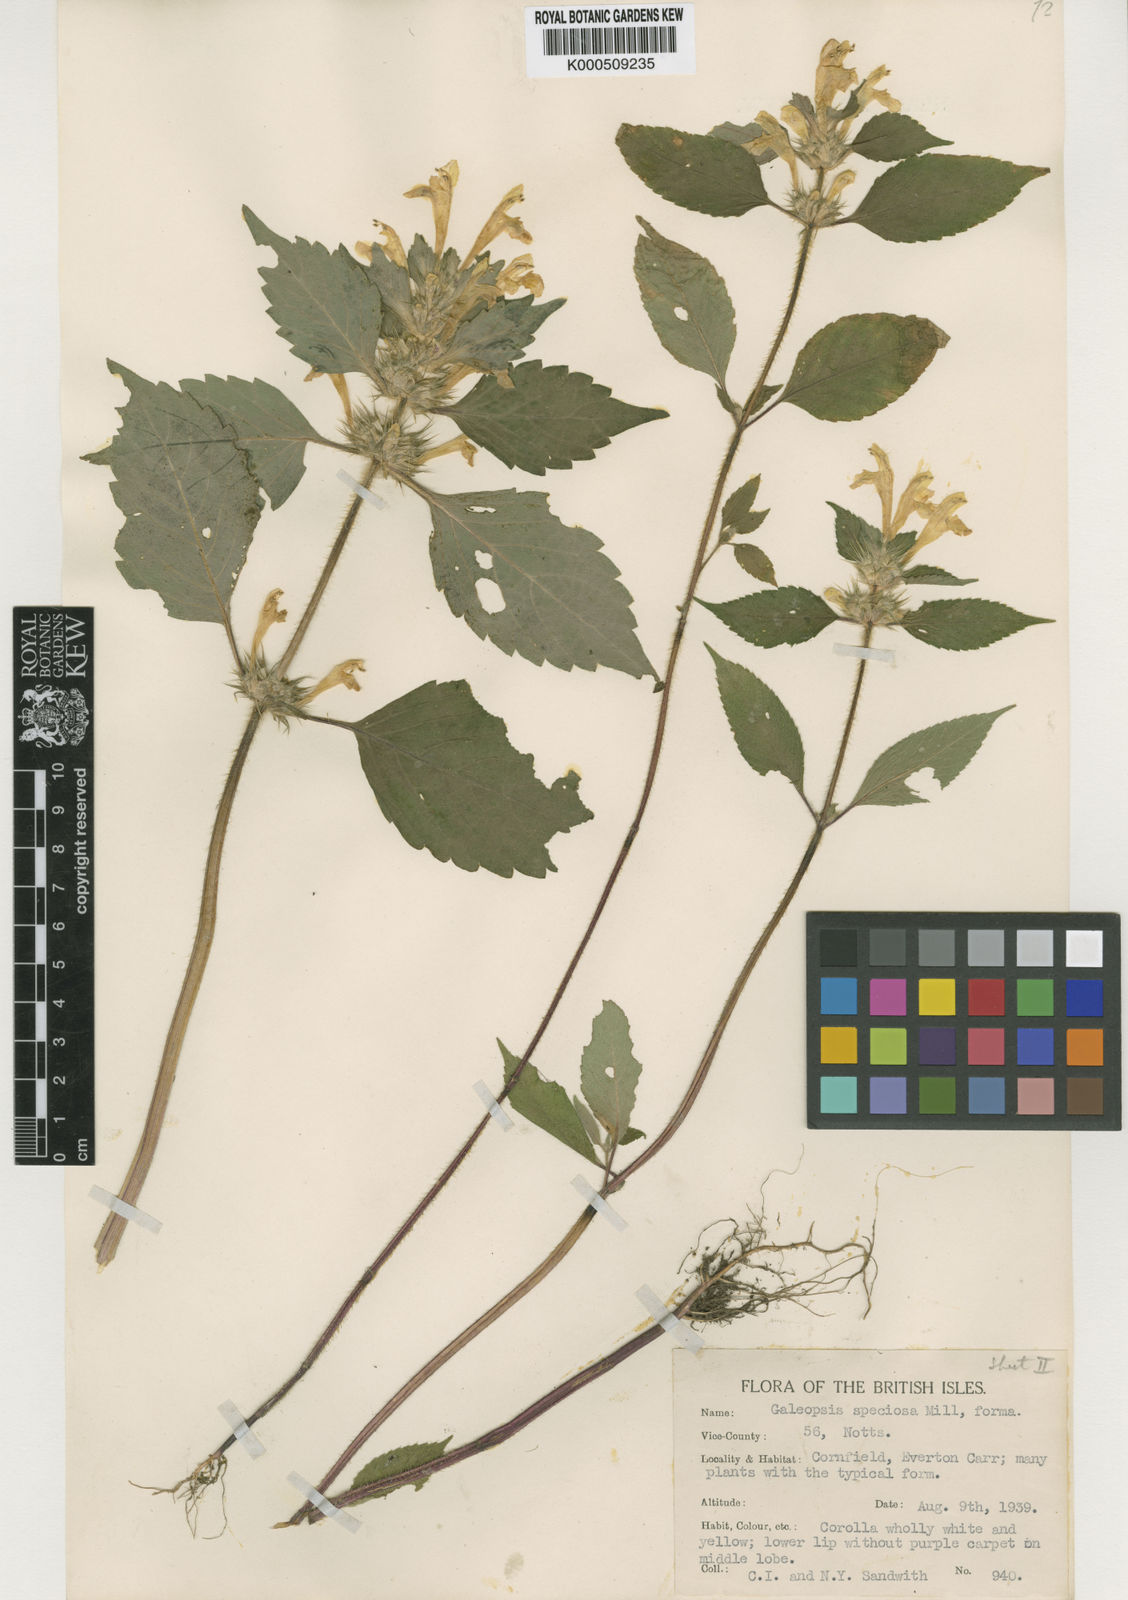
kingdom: Plantae
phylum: Tracheophyta
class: Magnoliopsida
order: Lamiales
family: Lamiaceae
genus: Galeopsis
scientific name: Galeopsis speciosa
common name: Large-flowered hemp-nettle
